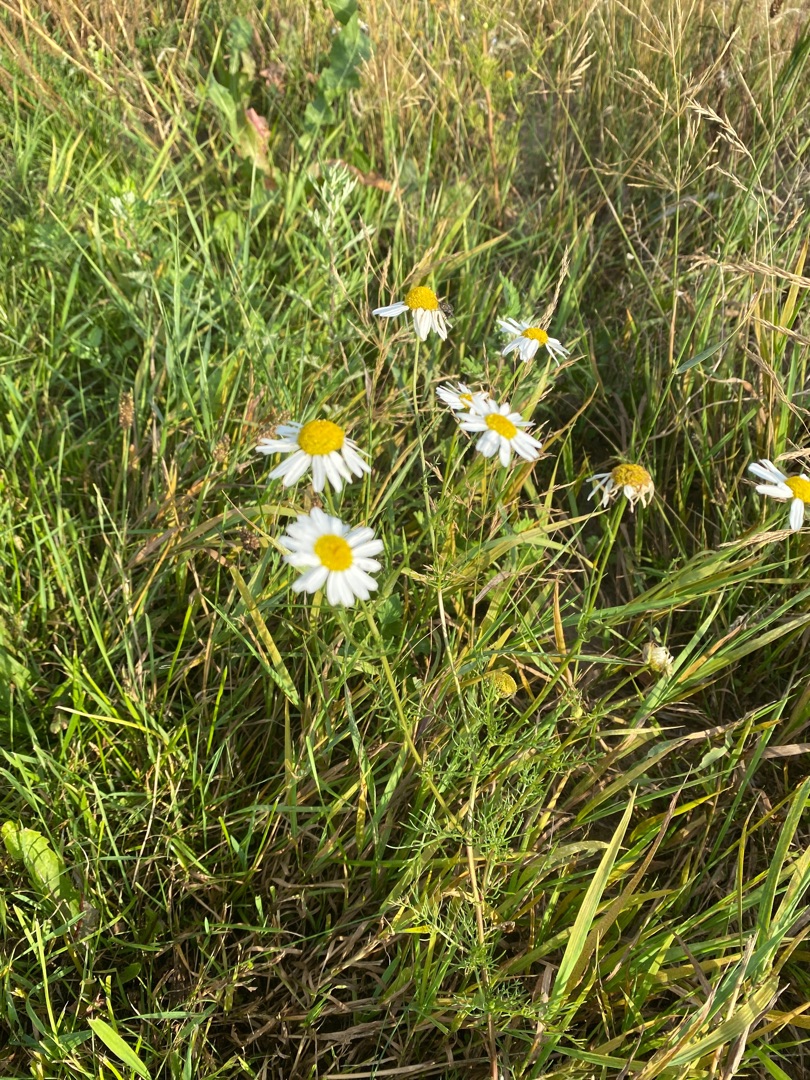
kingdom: Plantae
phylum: Tracheophyta
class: Magnoliopsida
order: Asterales
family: Asteraceae
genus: Tripleurospermum
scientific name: Tripleurospermum inodorum
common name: Lugtløs kamille
